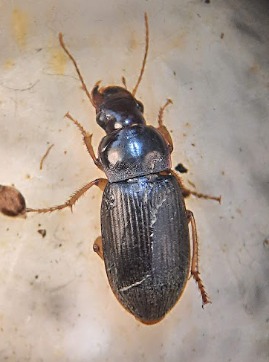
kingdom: Animalia
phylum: Arthropoda
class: Insecta
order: Coleoptera
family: Carabidae
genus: Harpalus
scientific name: Harpalus rufipes
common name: Håret markløber
